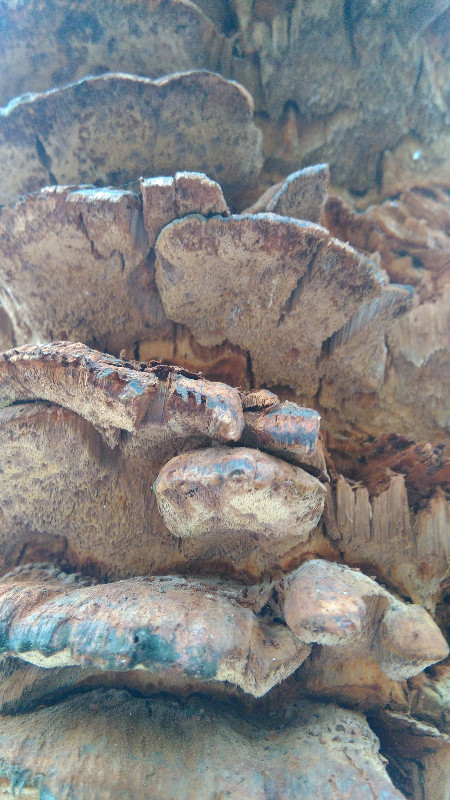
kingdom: Fungi
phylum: Basidiomycota
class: Agaricomycetes
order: Hymenochaetales
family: Hymenochaetaceae
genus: Xanthoporia
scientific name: Xanthoporia radiata
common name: elle-spejlporesvamp
